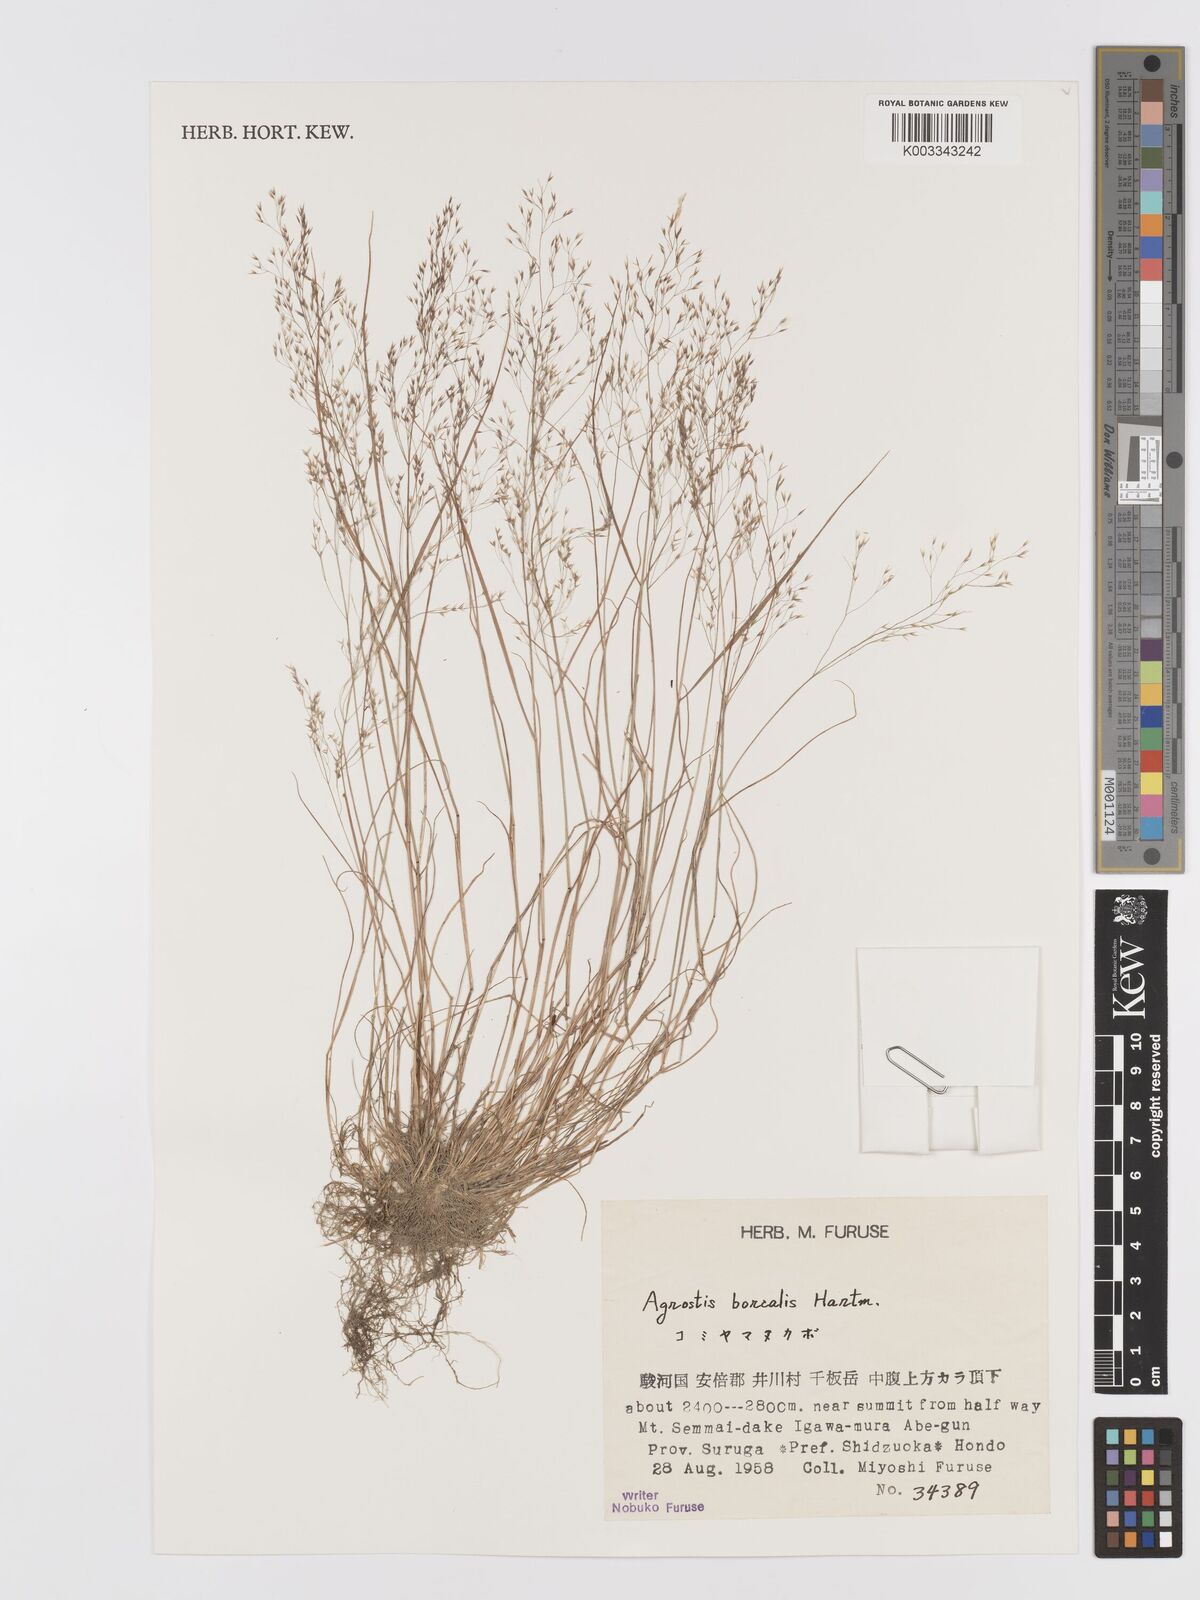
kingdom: Plantae
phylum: Tracheophyta
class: Liliopsida
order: Poales
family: Poaceae
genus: Agrostis
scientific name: Agrostis mertensii
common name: Northern bent
